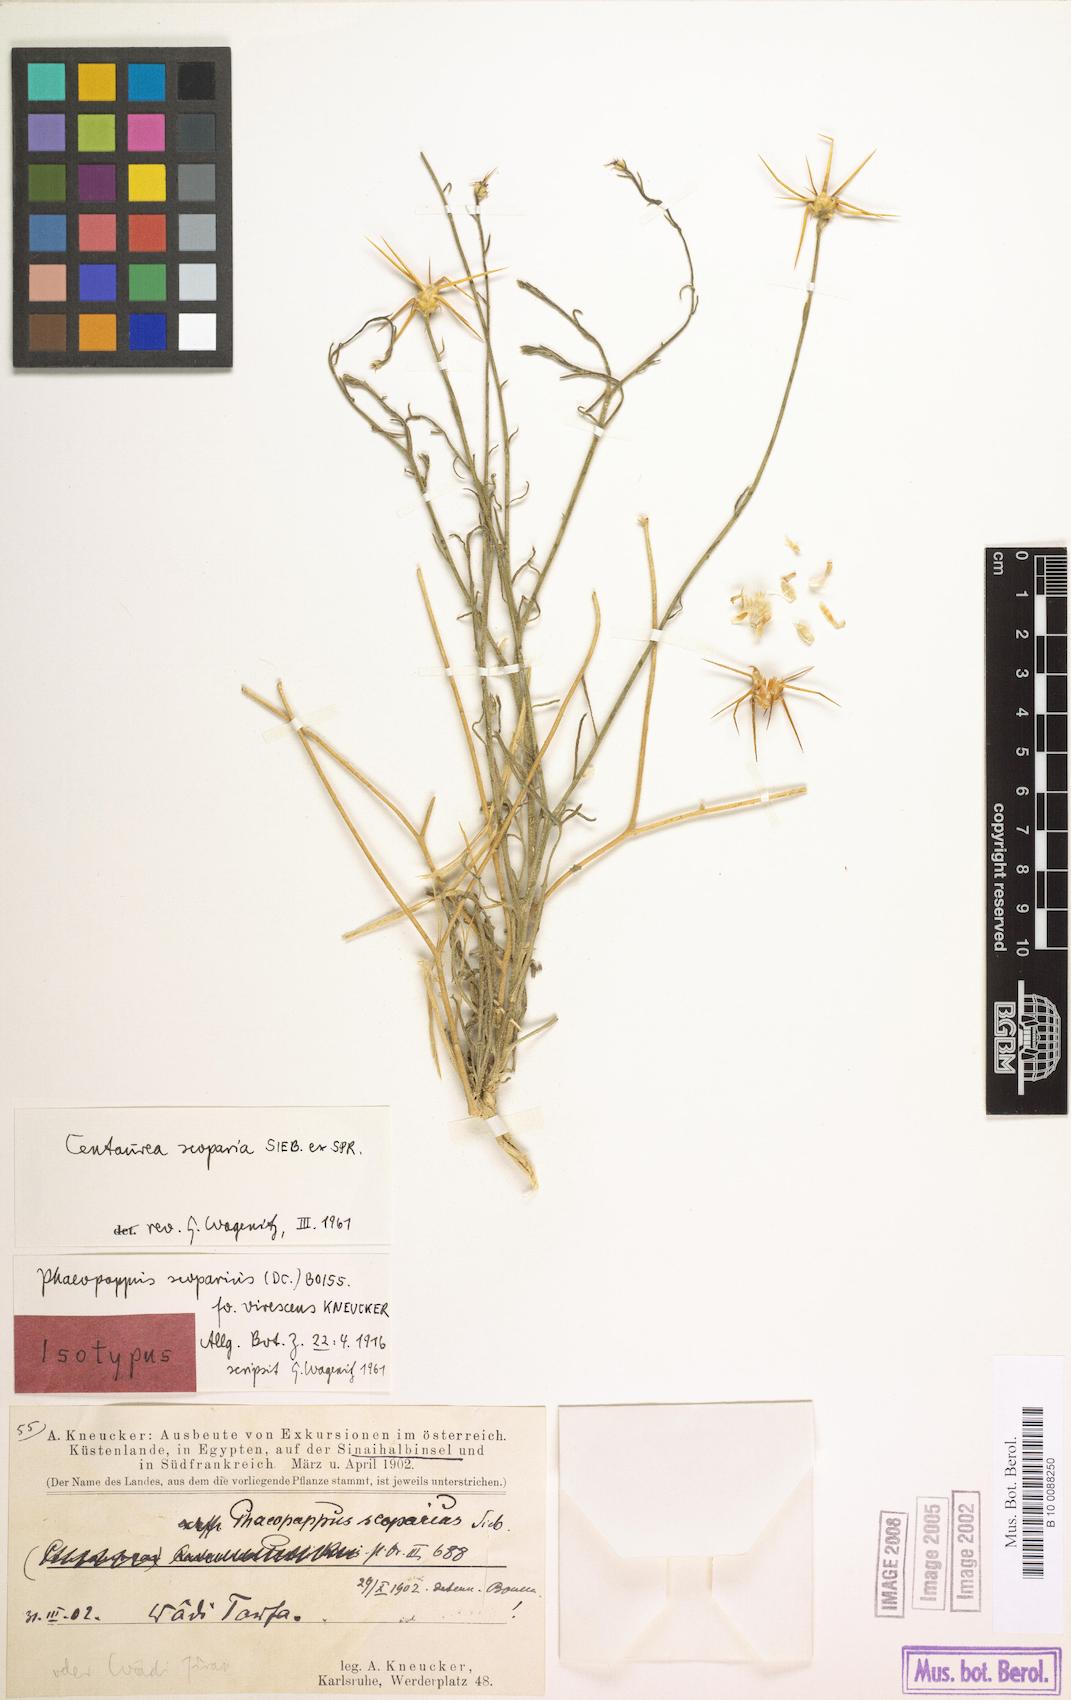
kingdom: Plantae
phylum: Tracheophyta
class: Magnoliopsida
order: Asterales
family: Asteraceae
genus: Centaurea
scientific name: Centaurea scoparia
